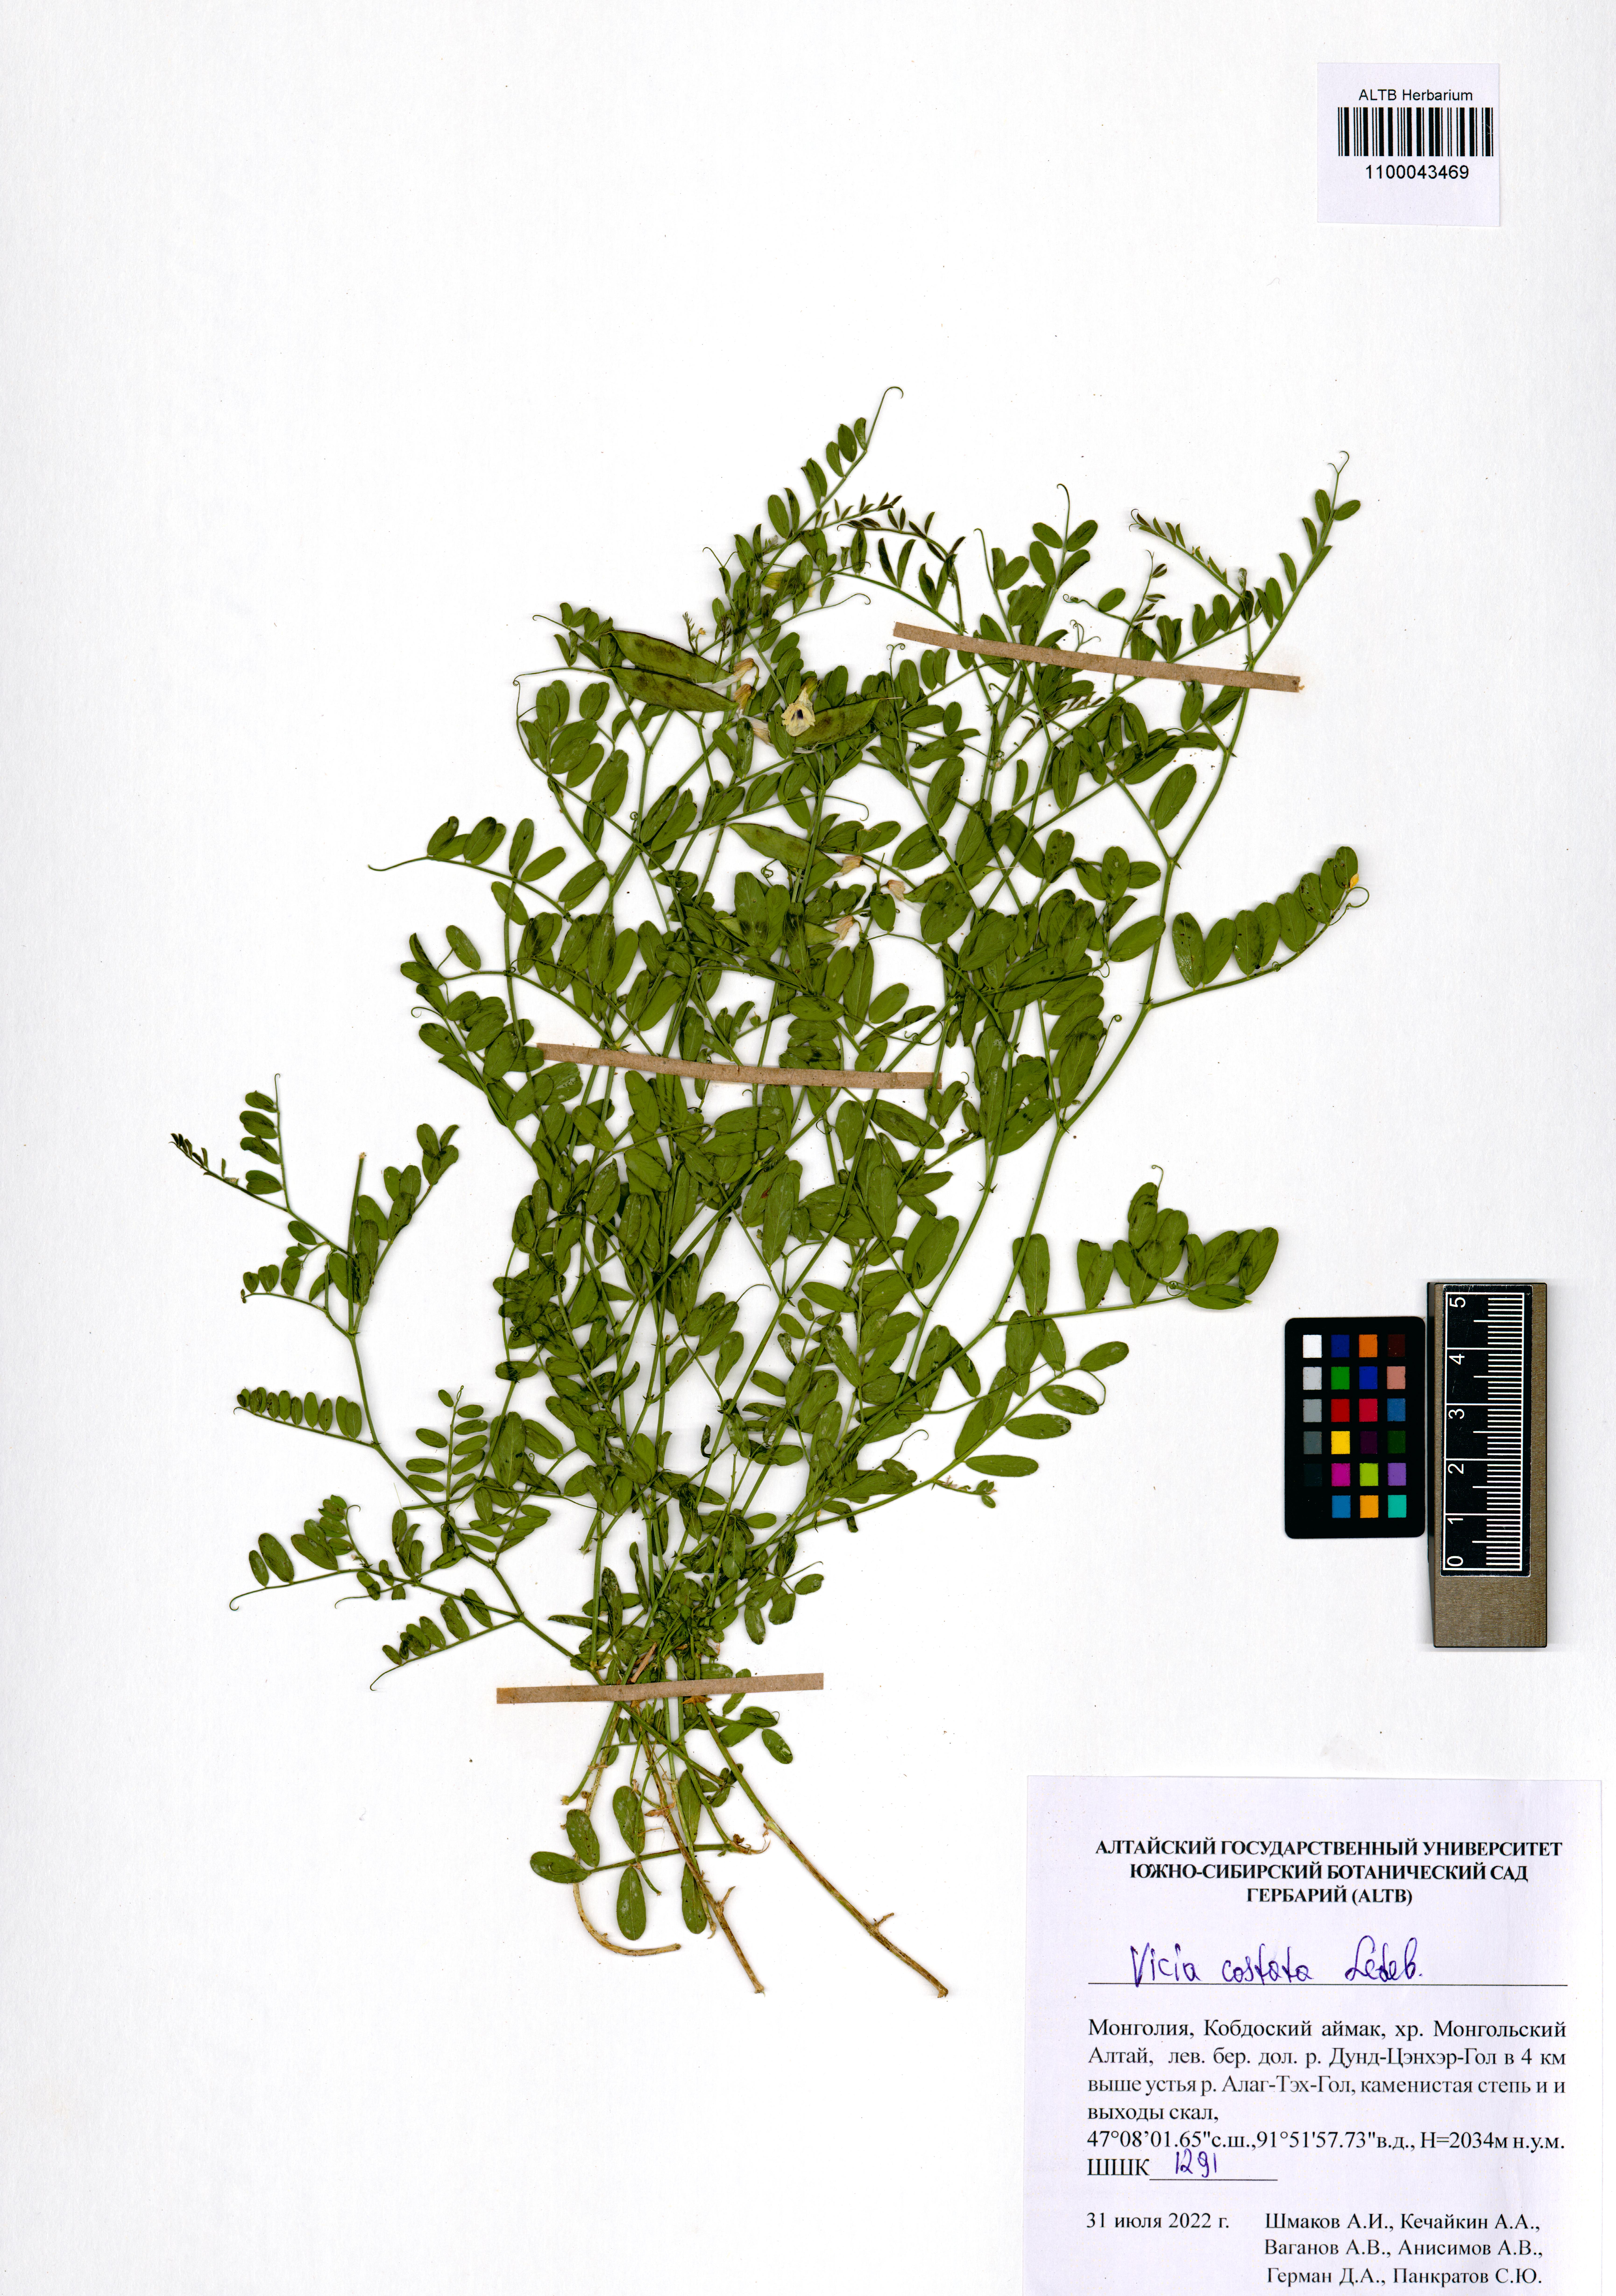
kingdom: Plantae
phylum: Tracheophyta
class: Magnoliopsida
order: Fabales
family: Fabaceae
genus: Vicia
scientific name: Vicia costata
